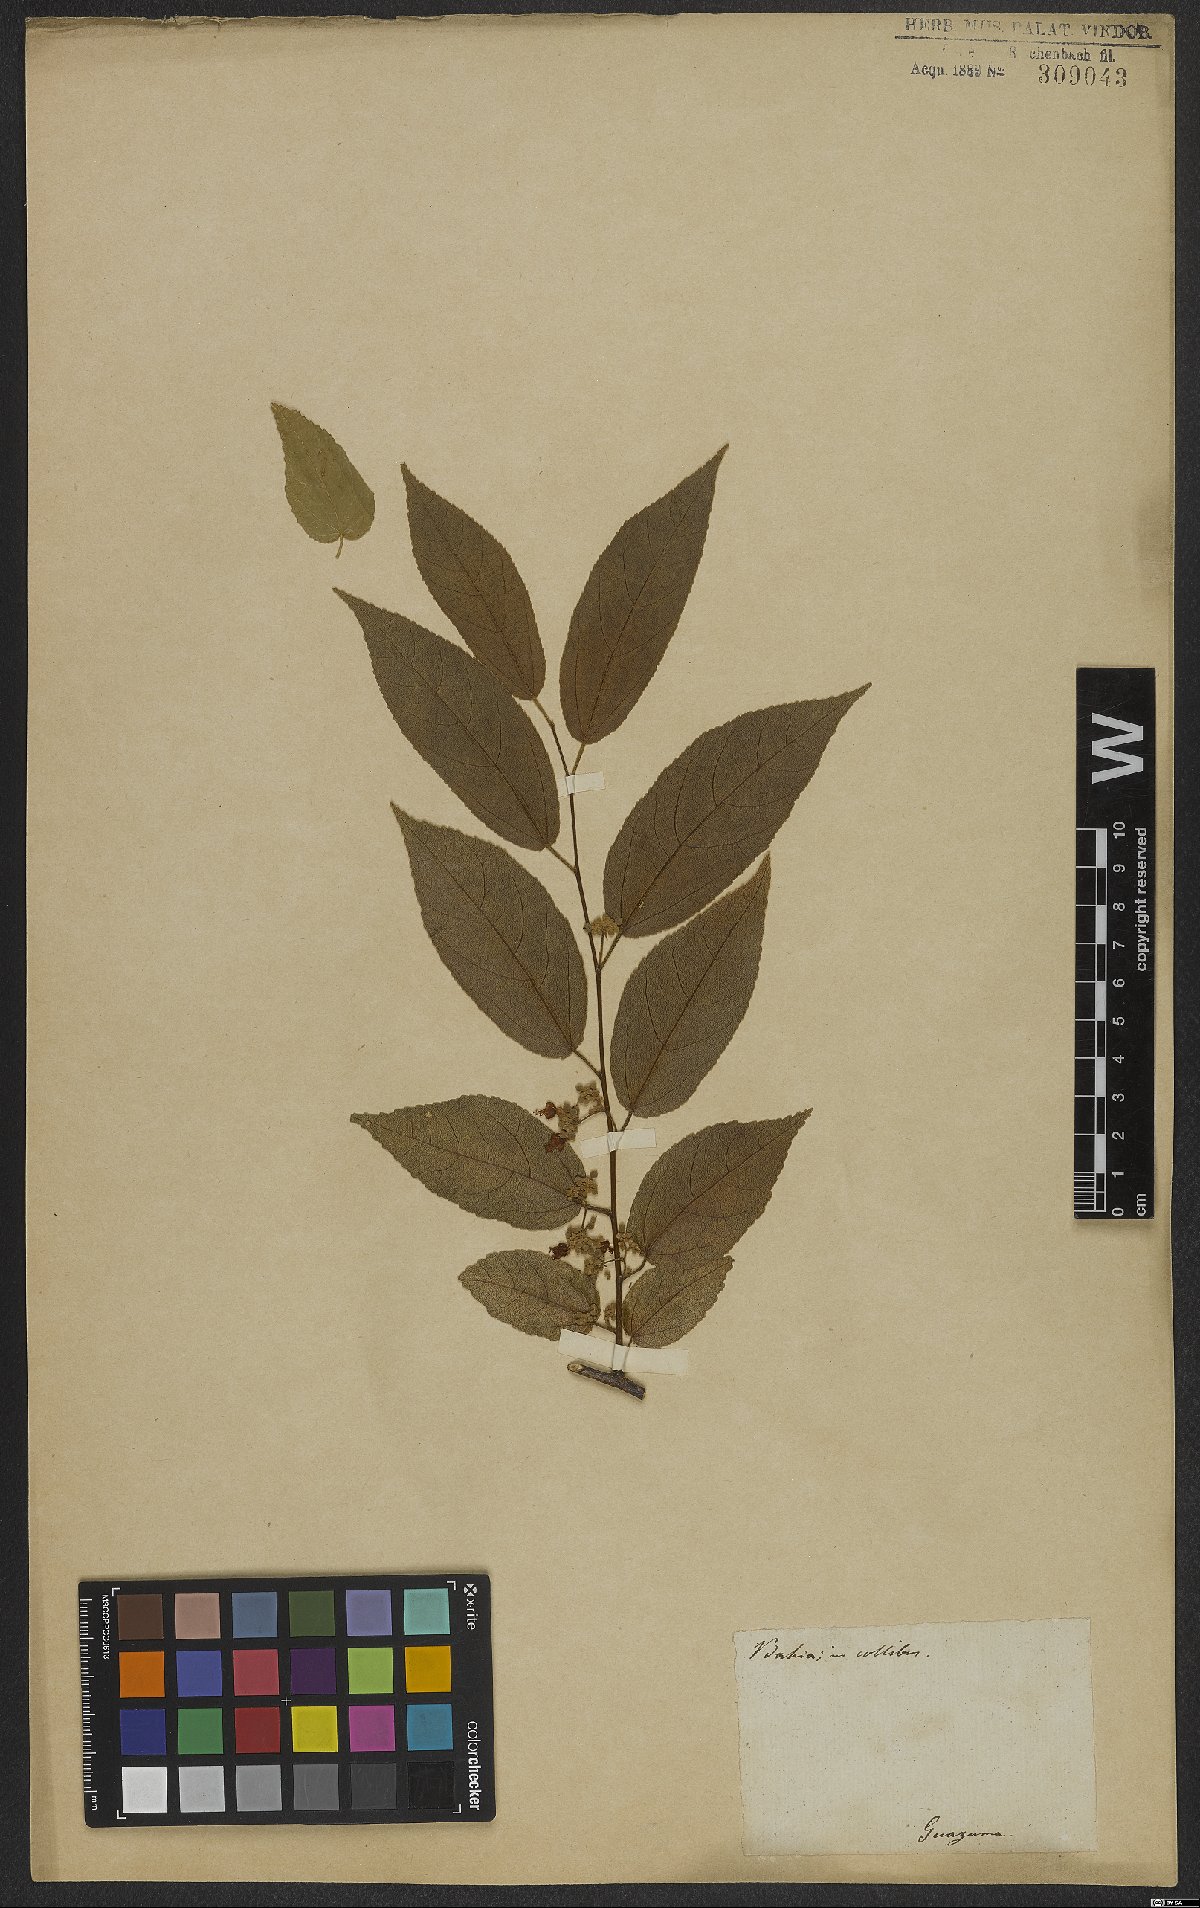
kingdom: Plantae
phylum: Tracheophyta
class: Magnoliopsida
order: Malvales
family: Malvaceae
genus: Guazuma
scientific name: Guazuma ulmifolia
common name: Bastard-cedar
